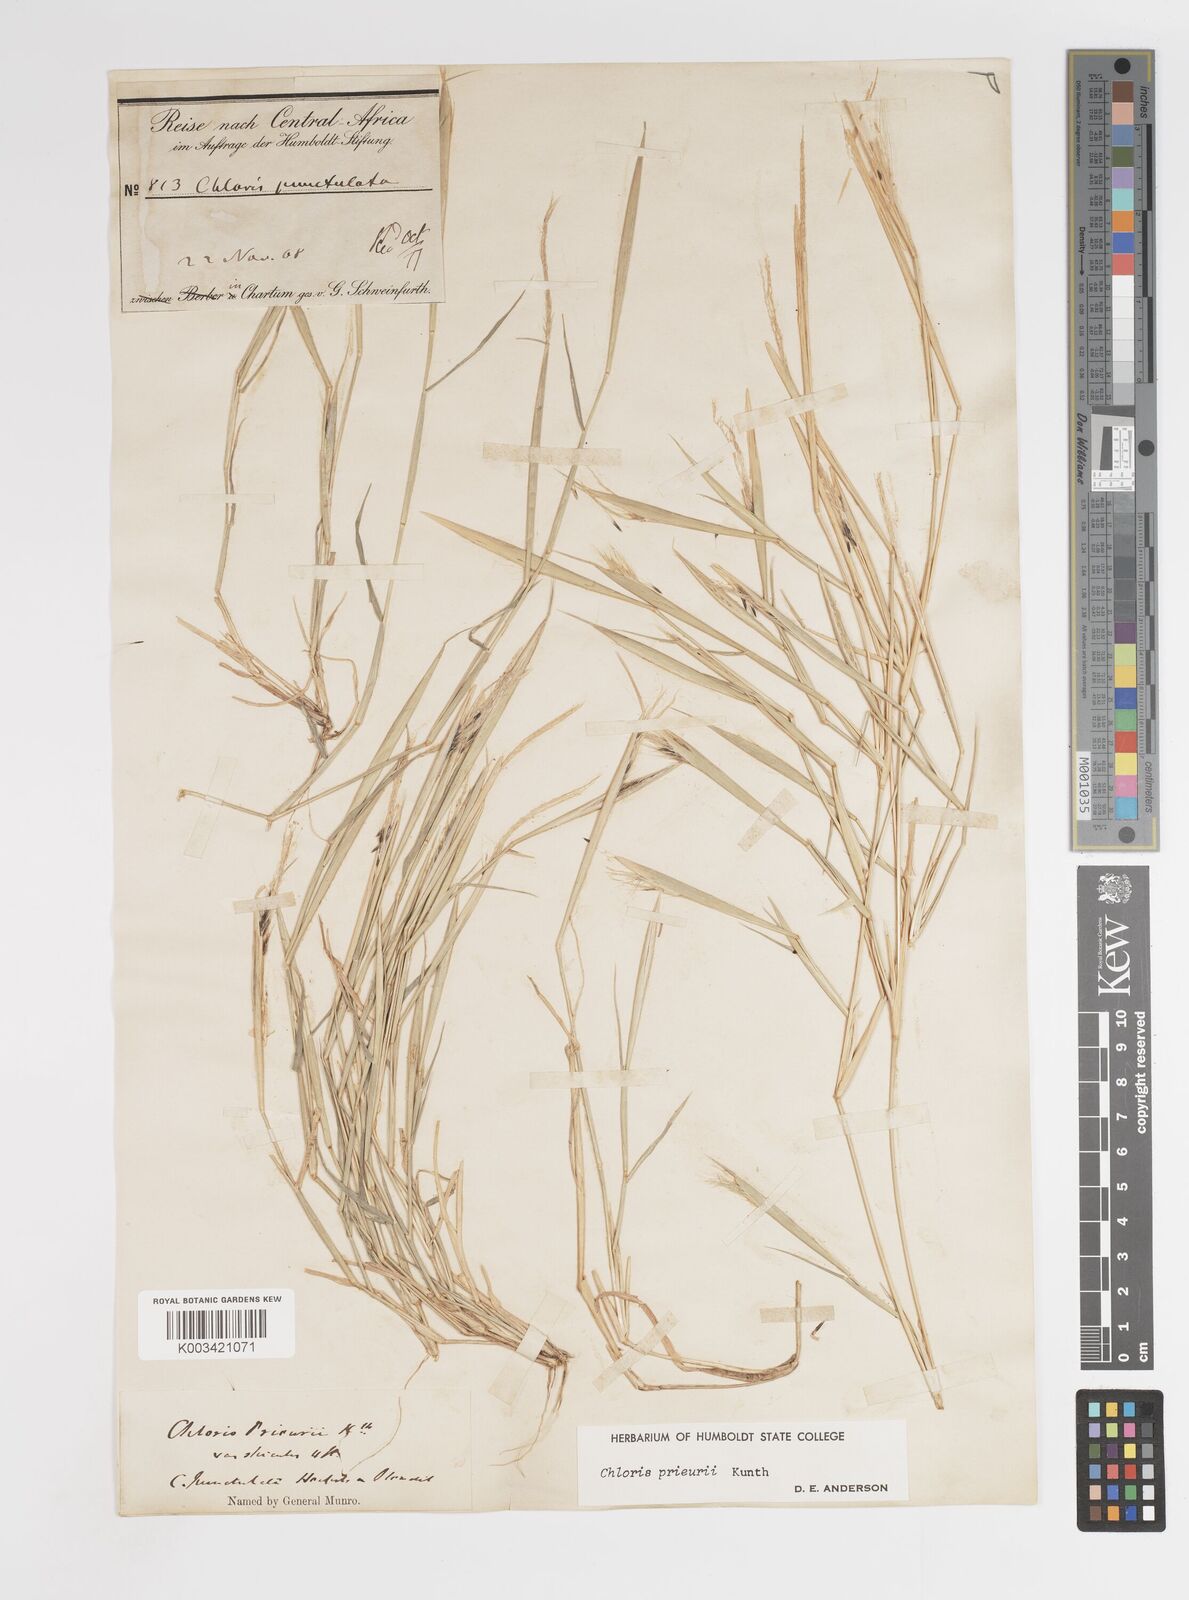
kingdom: Plantae
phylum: Tracheophyta
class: Liliopsida
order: Poales
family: Poaceae
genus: Enteropogon
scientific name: Enteropogon prieurii
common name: Prieur's umbrellagrass
